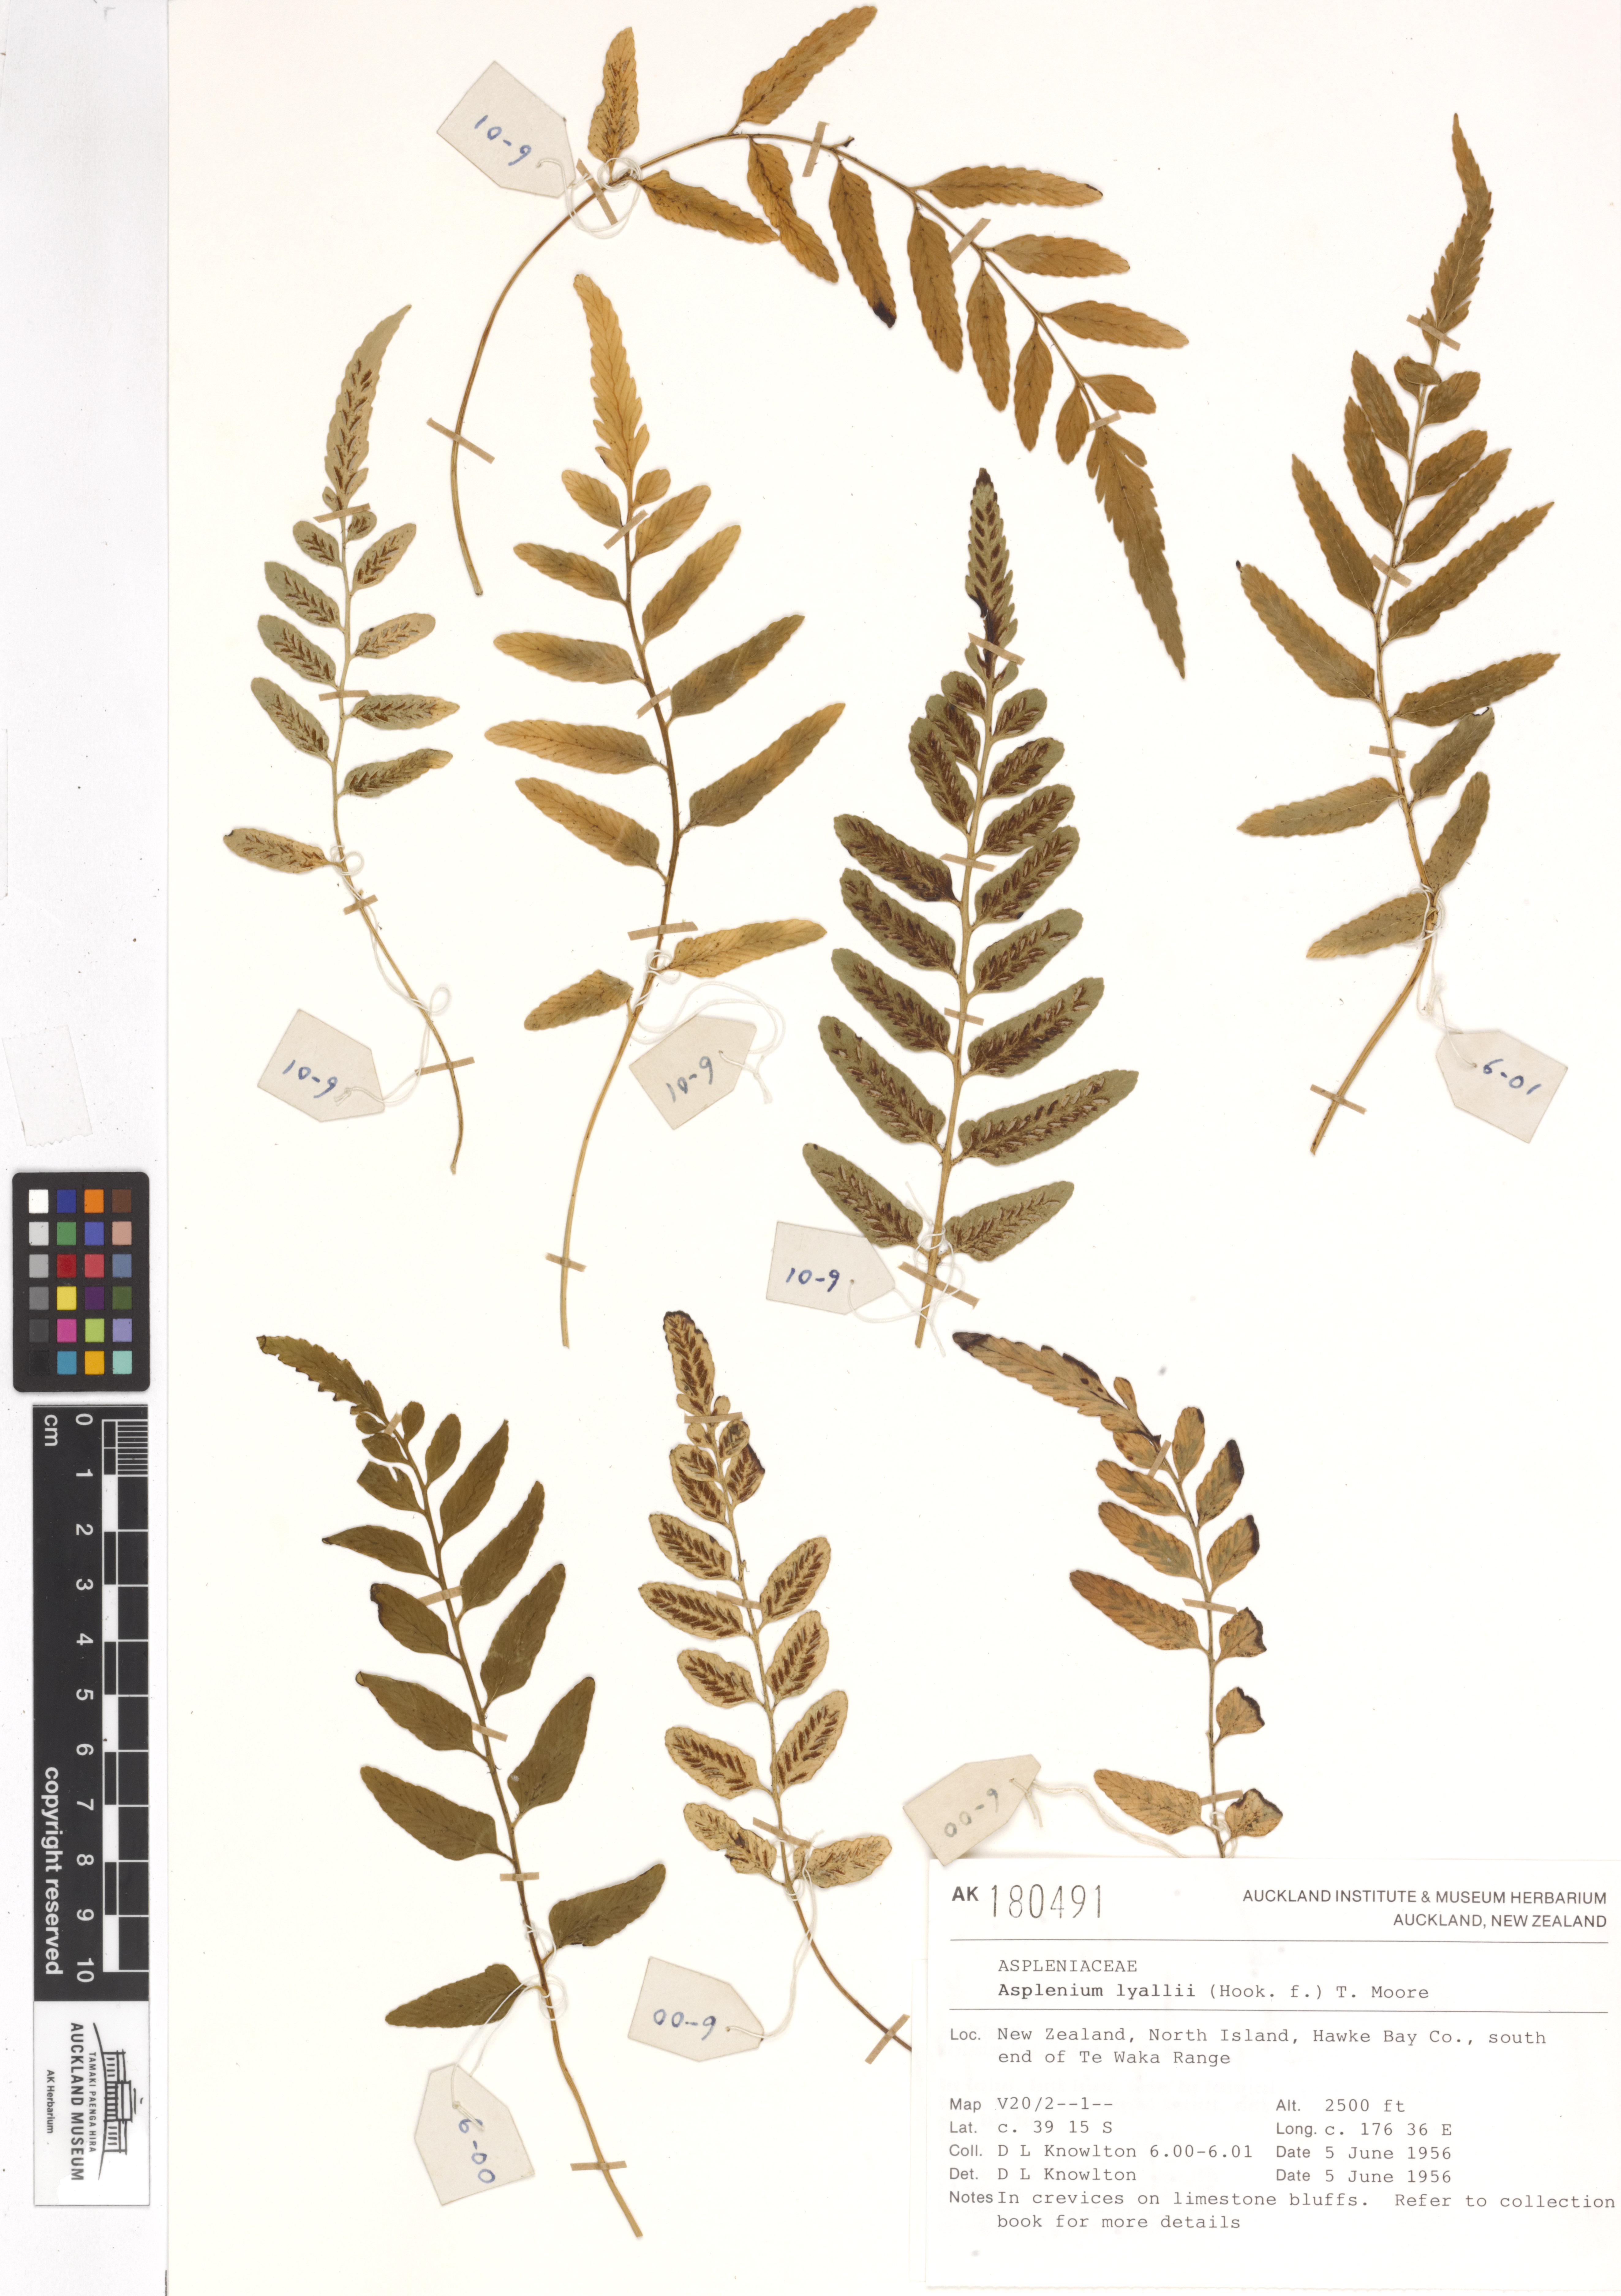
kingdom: Plantae
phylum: Tracheophyta
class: Polypodiopsida
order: Polypodiales
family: Aspleniaceae
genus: Asplenium
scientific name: Asplenium lyallii
